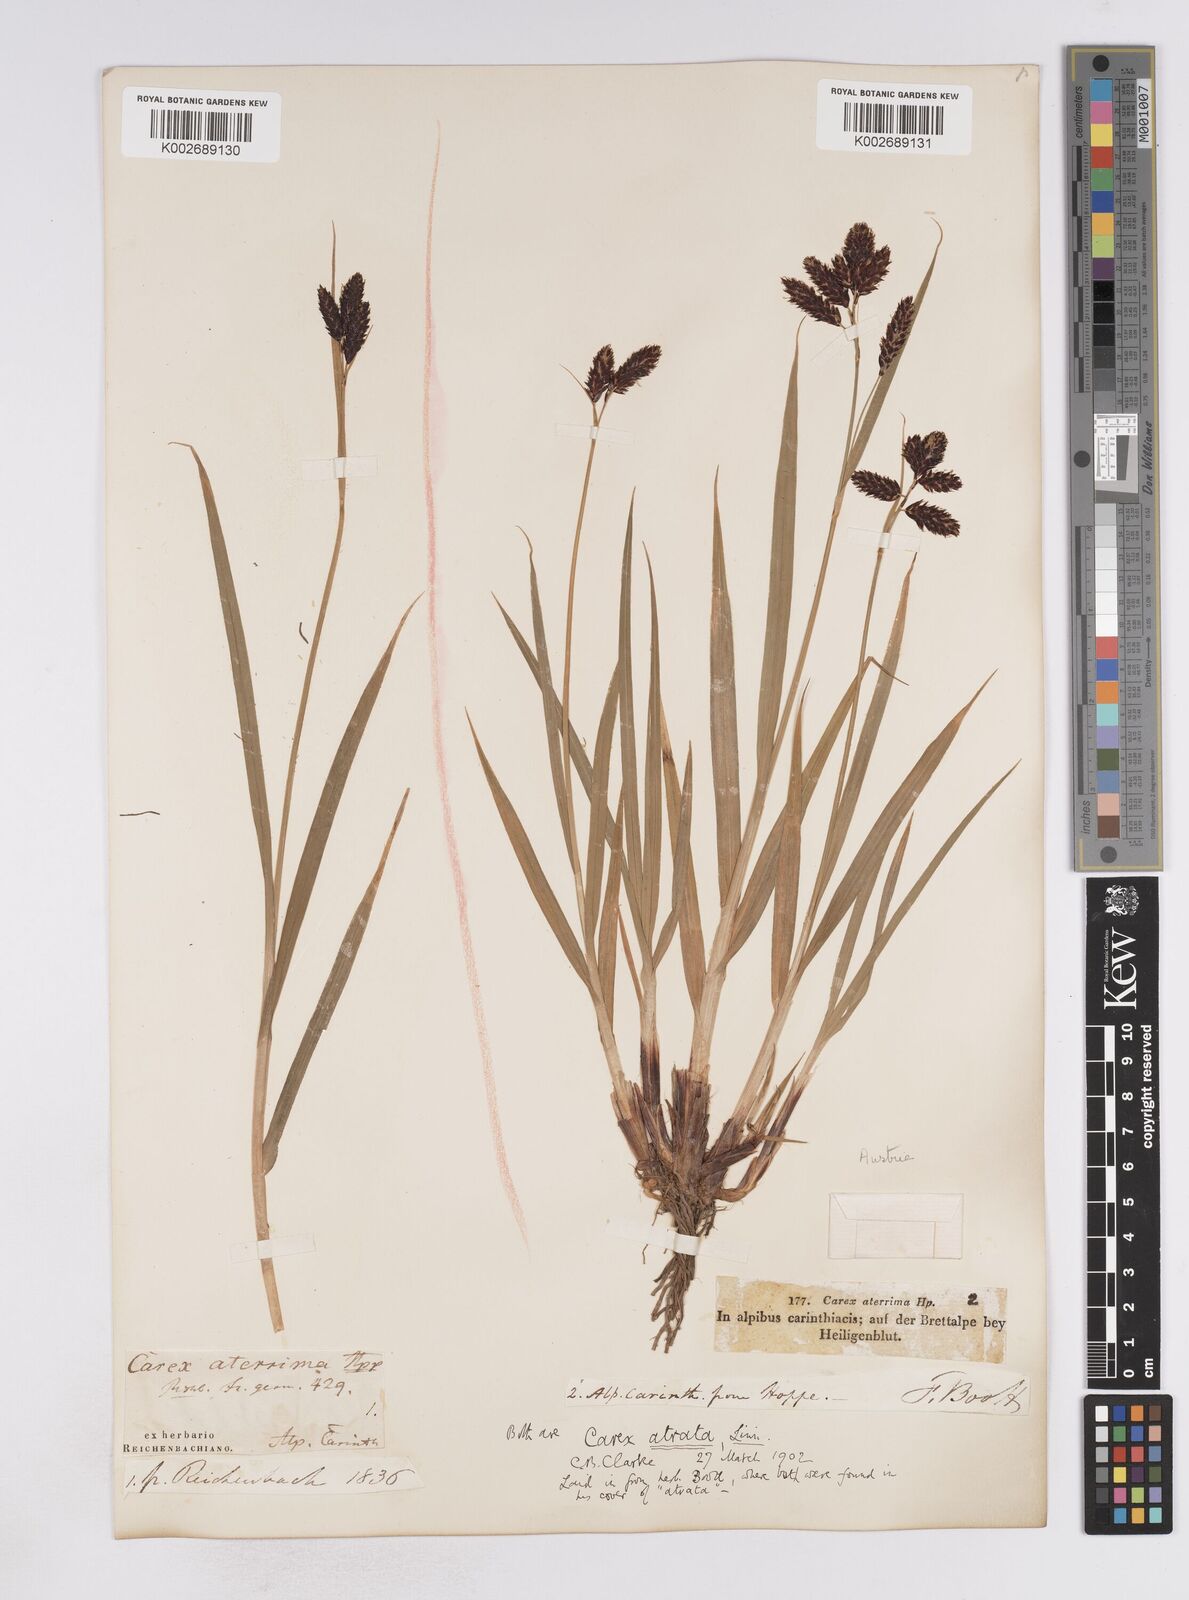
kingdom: Plantae
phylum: Tracheophyta
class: Liliopsida
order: Poales
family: Cyperaceae
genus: Carex
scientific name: Carex aterrima
